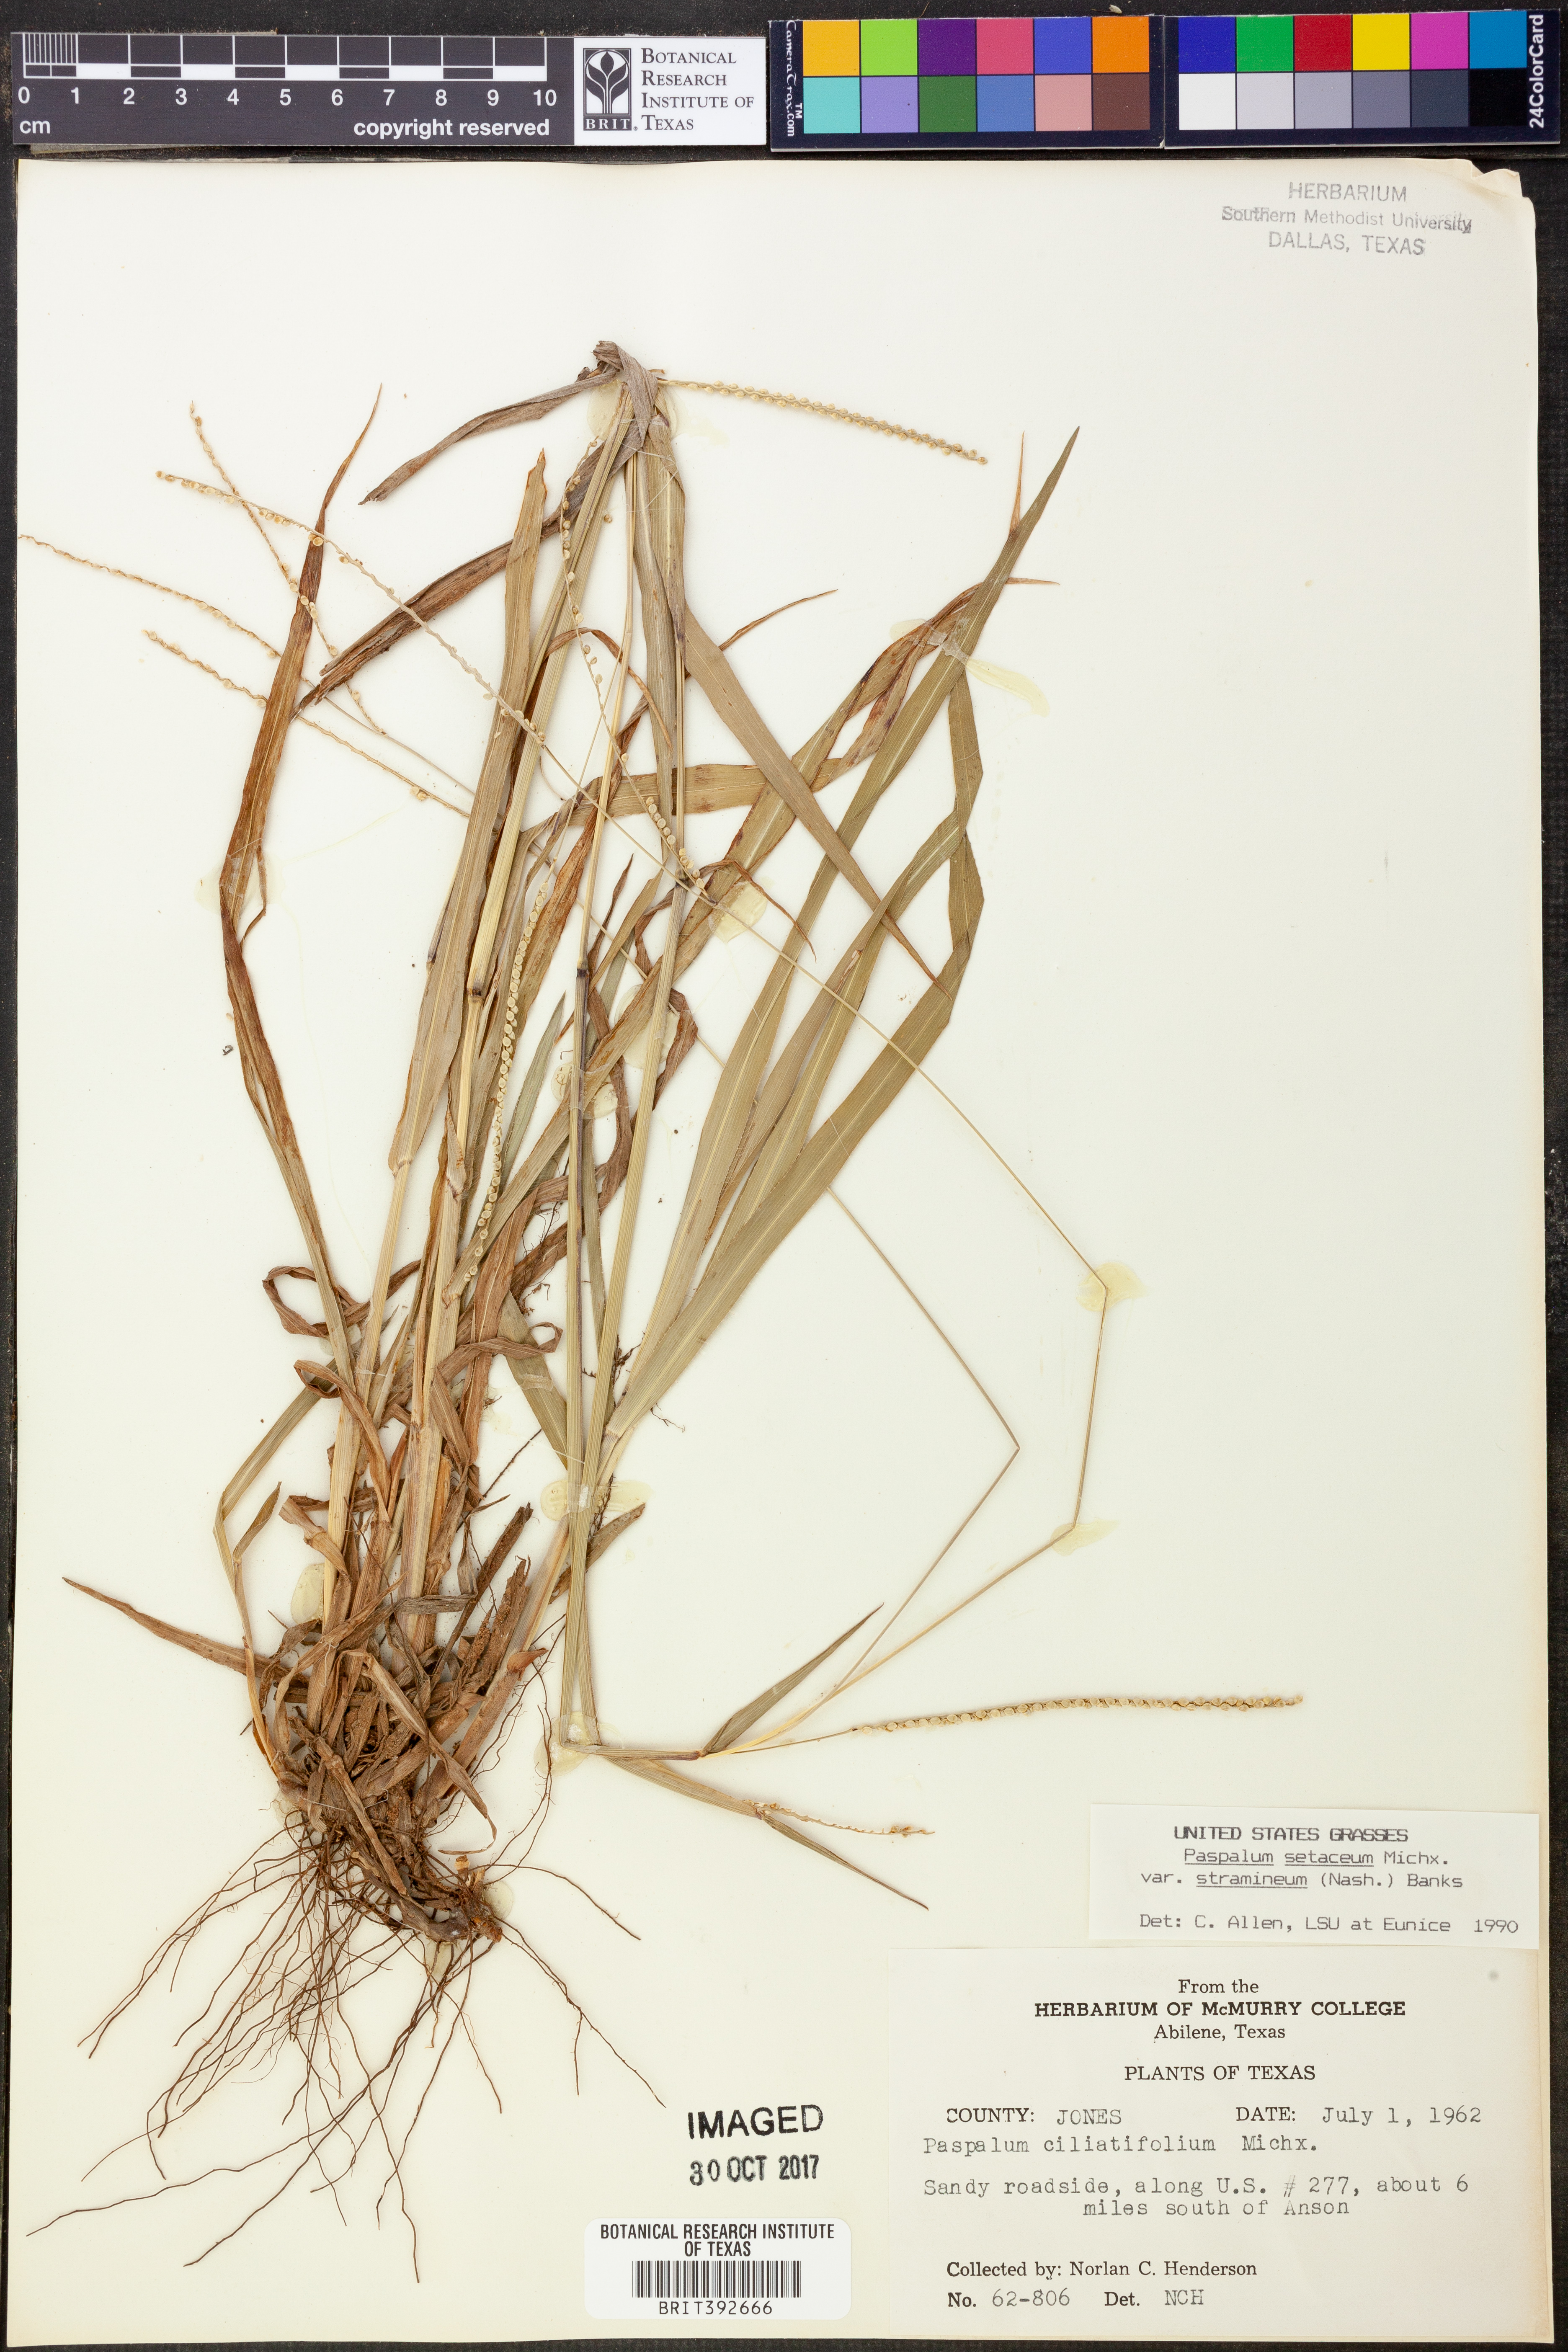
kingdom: Plantae
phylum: Tracheophyta
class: Liliopsida
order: Poales
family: Poaceae
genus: Paspalum
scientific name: Paspalum setaceum
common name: Slender paspalum
